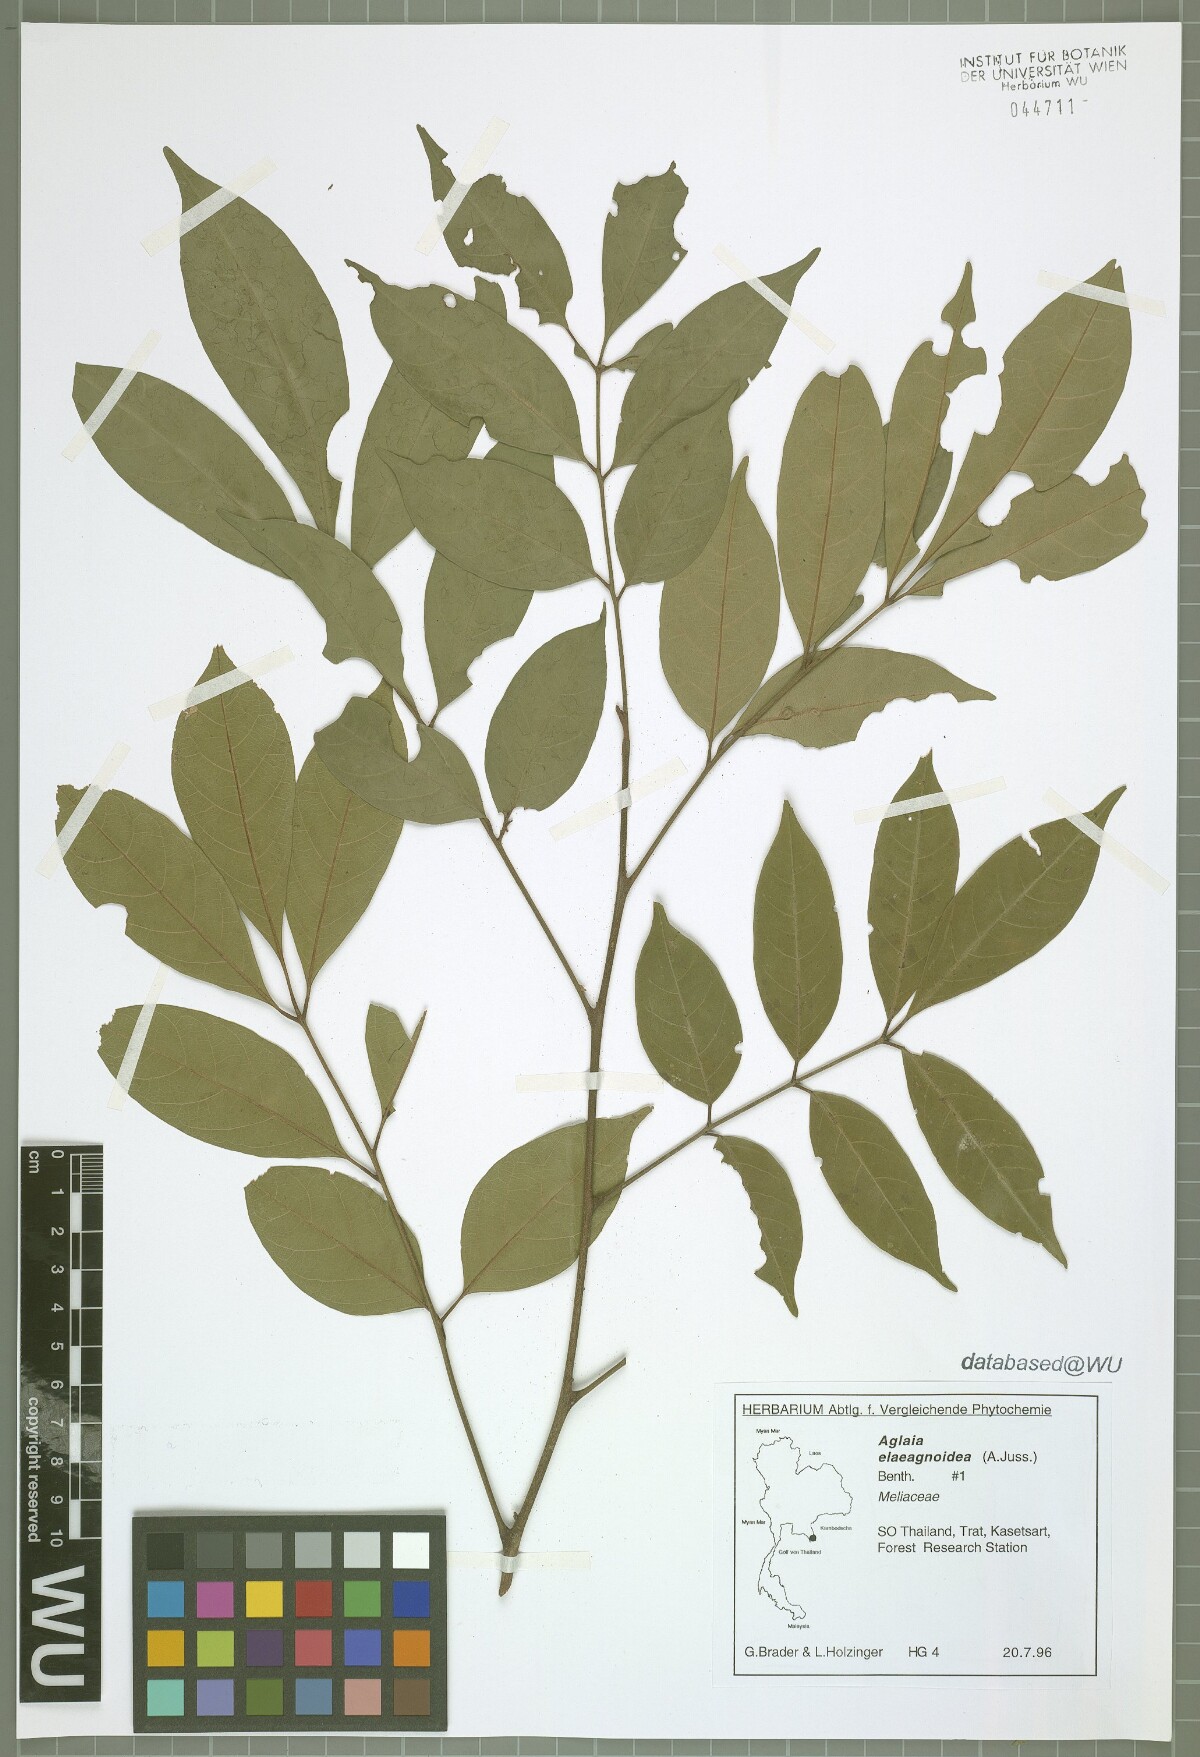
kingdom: Plantae
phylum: Tracheophyta
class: Magnoliopsida
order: Sapindales
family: Meliaceae
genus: Aglaia
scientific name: Aglaia elaeagnoidea
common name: Droopyleaf
